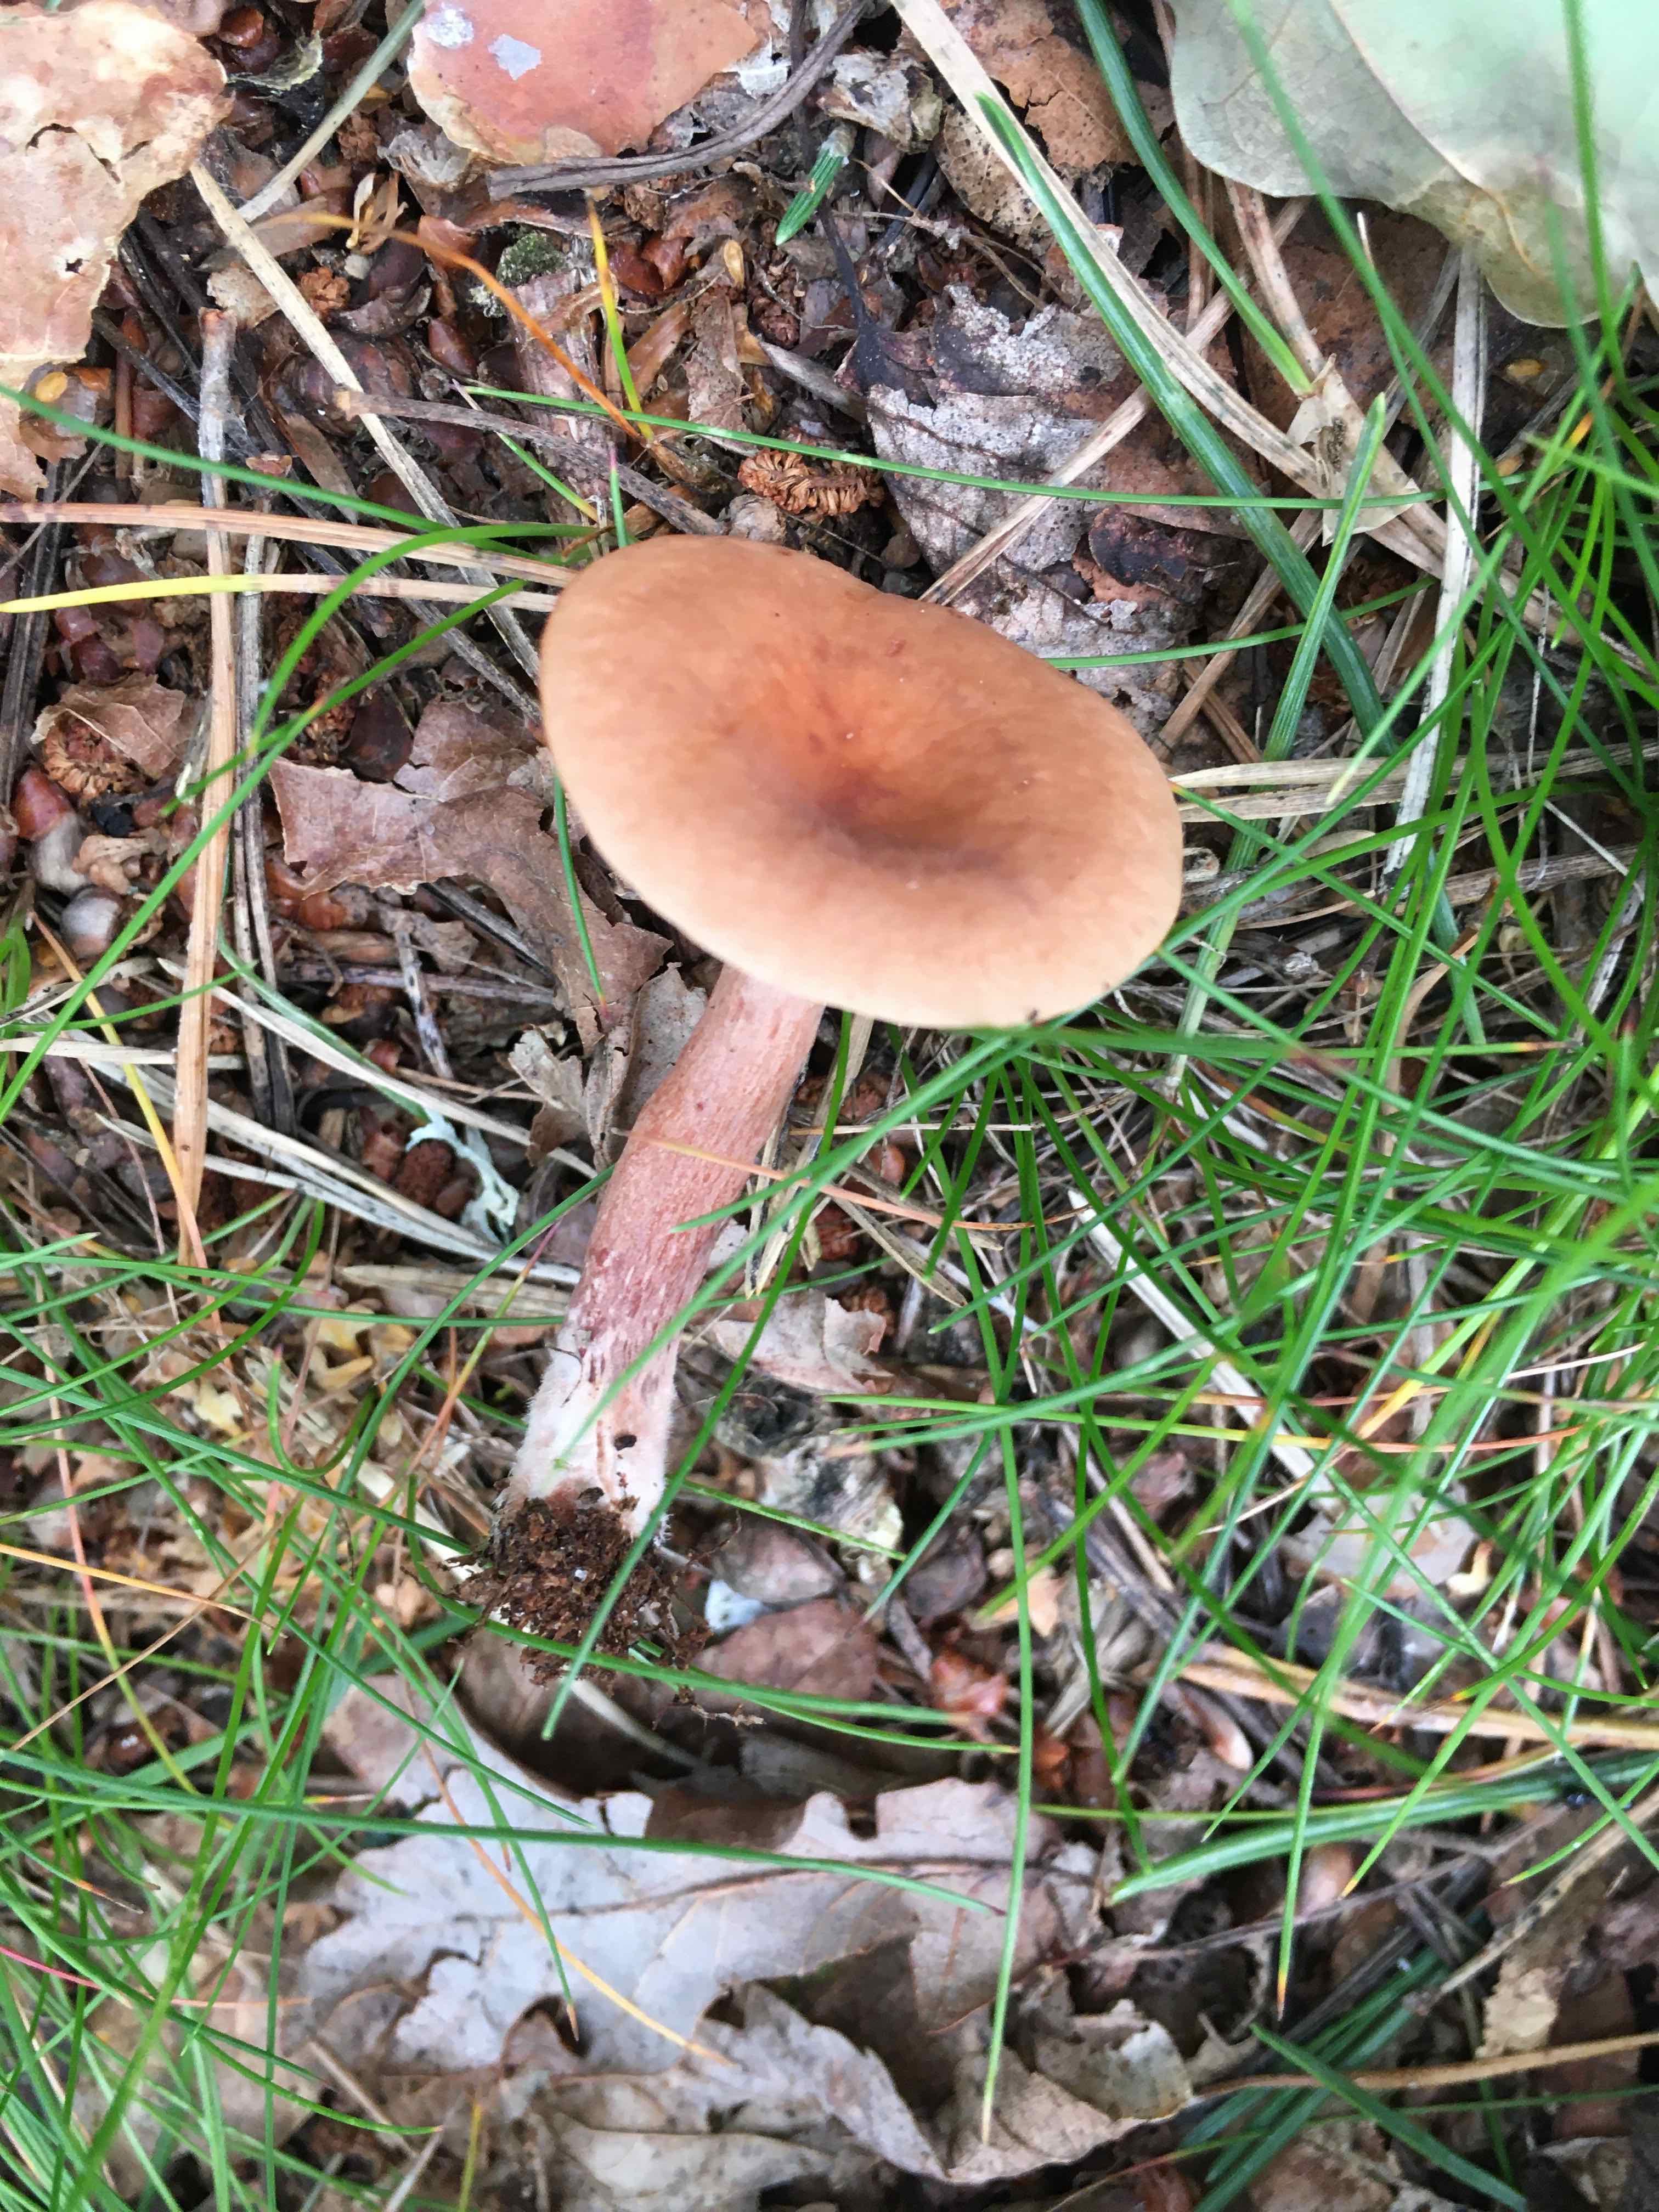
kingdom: Fungi
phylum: Basidiomycota
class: Agaricomycetes
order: Russulales
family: Russulaceae
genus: Lactarius
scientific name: Lactarius tabidus
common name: rynket mælkehat
